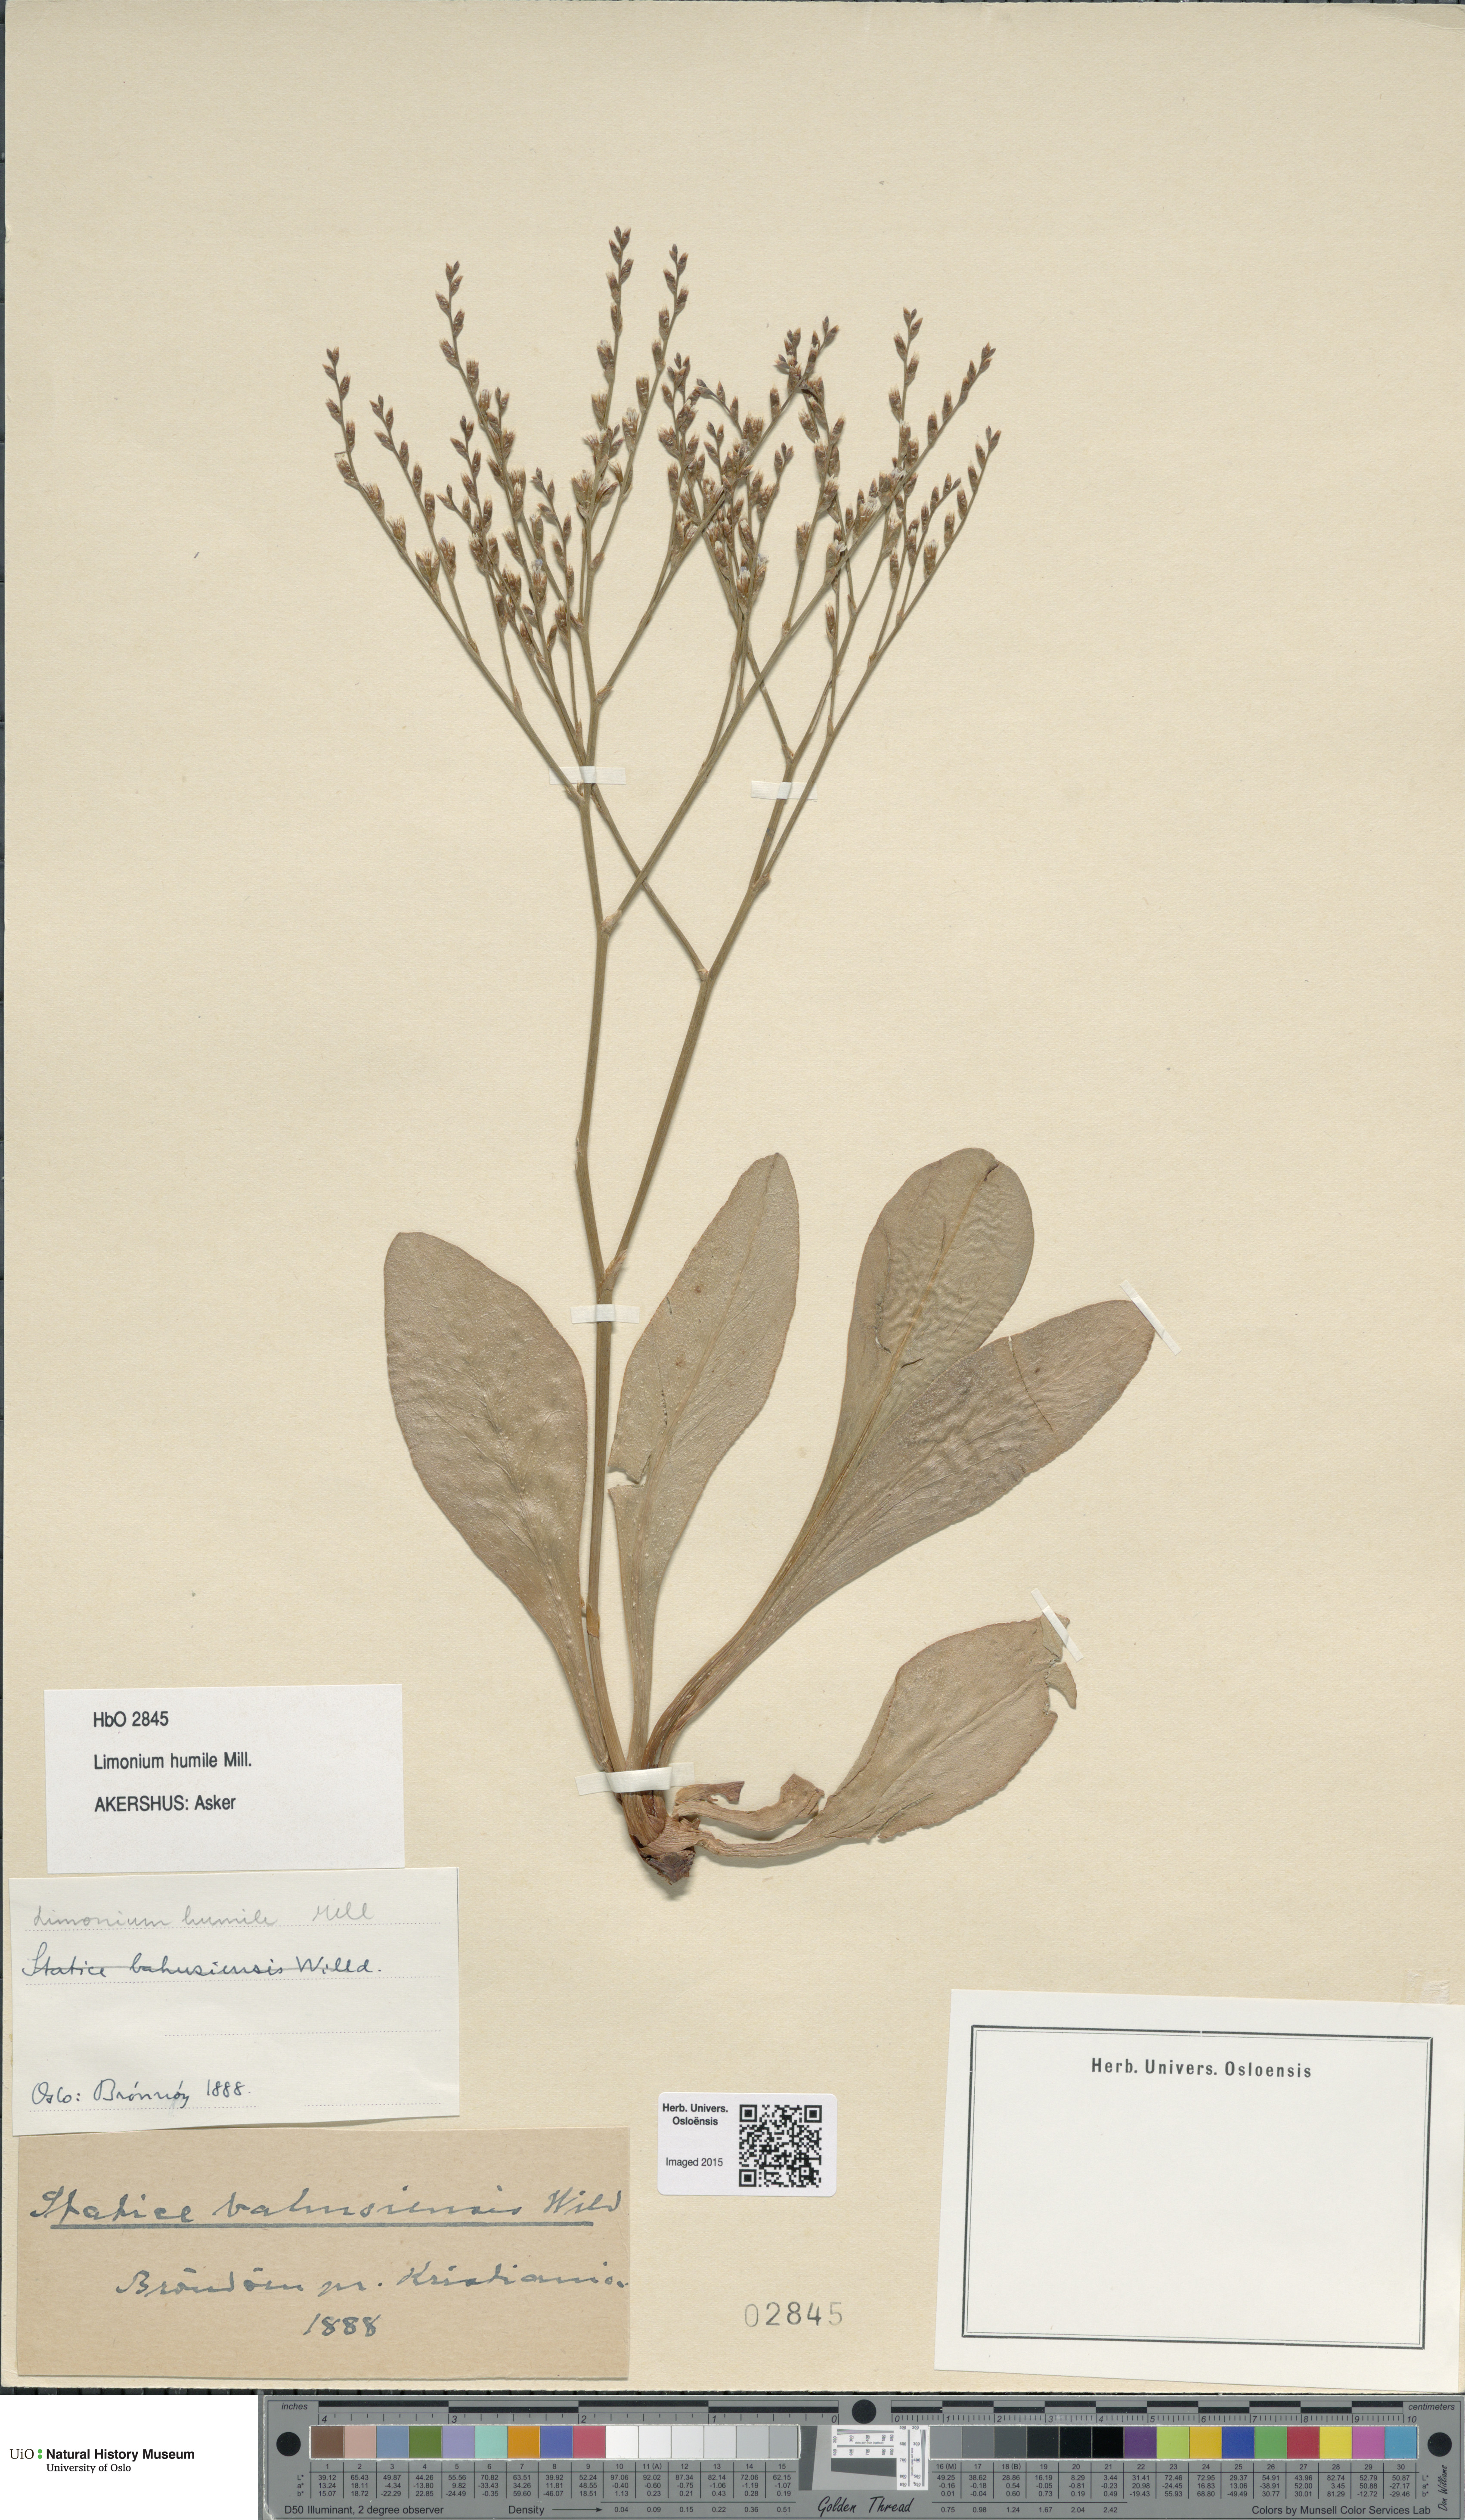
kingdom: Plantae
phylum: Tracheophyta
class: Magnoliopsida
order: Caryophyllales
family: Plumbaginaceae
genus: Limonium
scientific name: Limonium humile
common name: Lax-flowered sea-lavender
